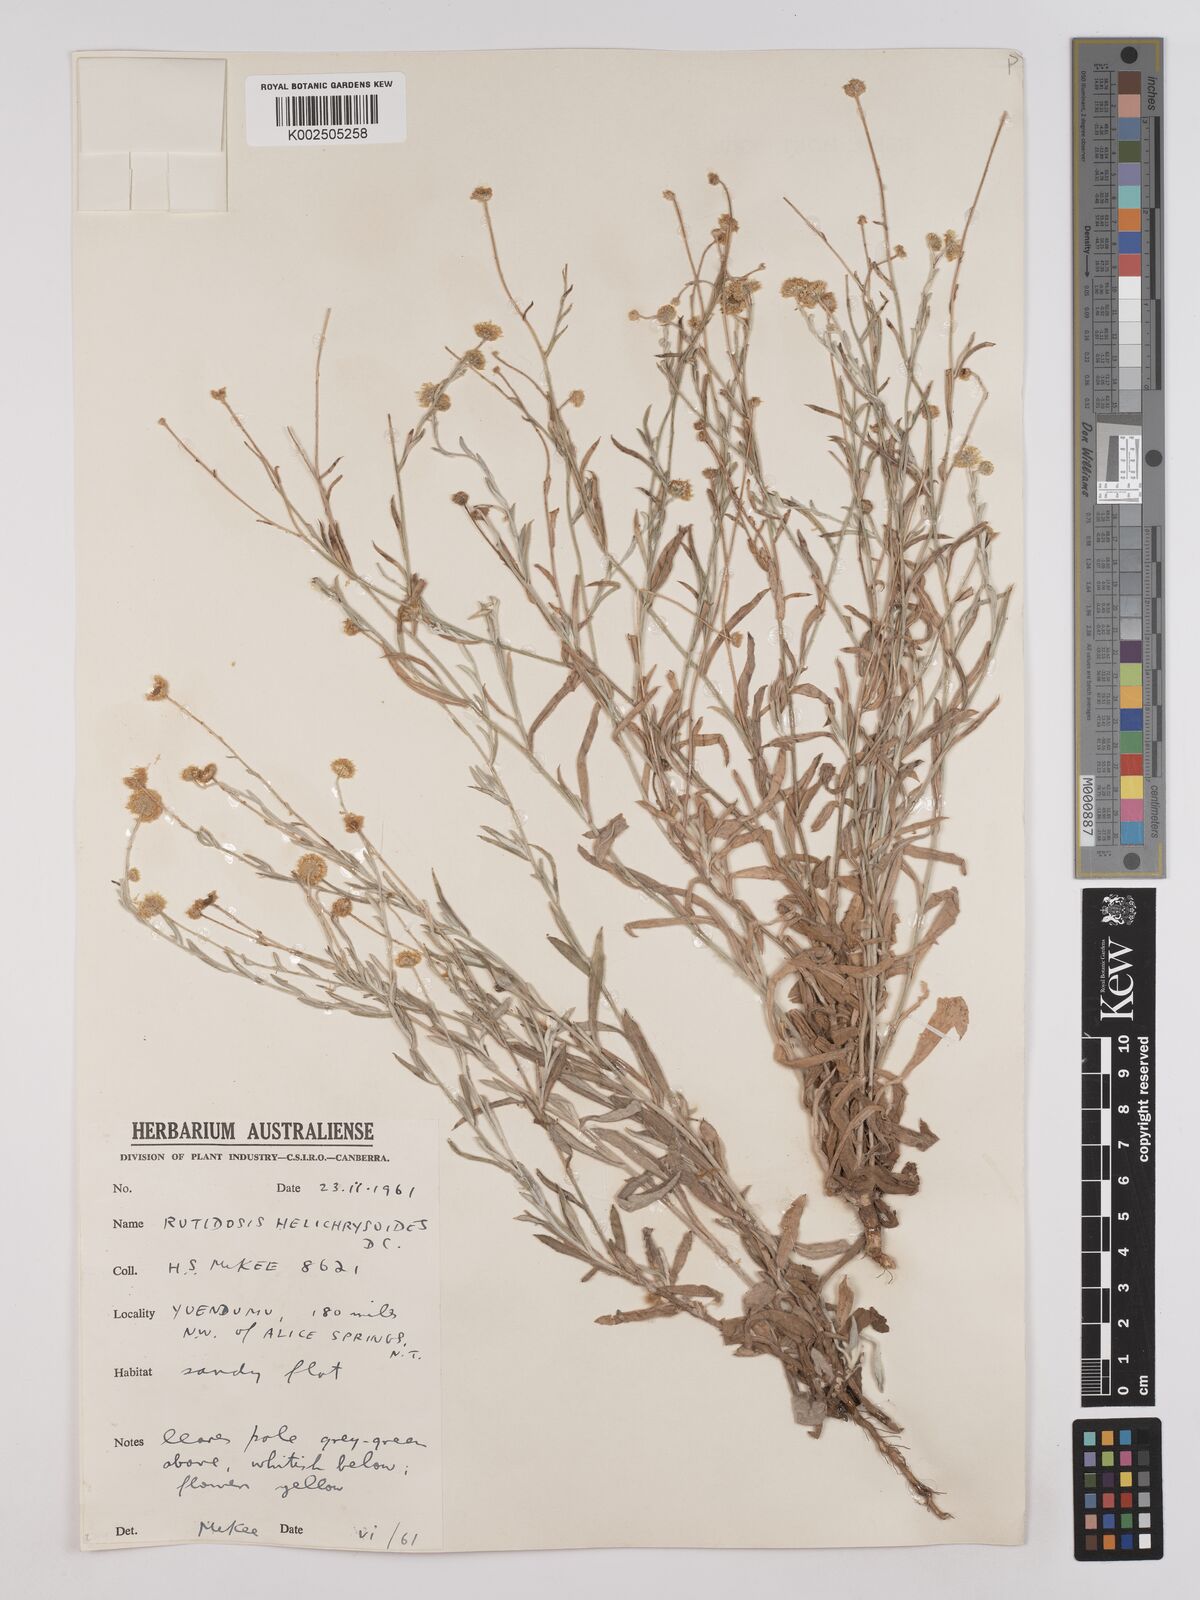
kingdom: Plantae
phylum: Tracheophyta
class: Magnoliopsida
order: Asterales
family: Asteraceae
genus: Rutidosis
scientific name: Rutidosis helichrysoides
